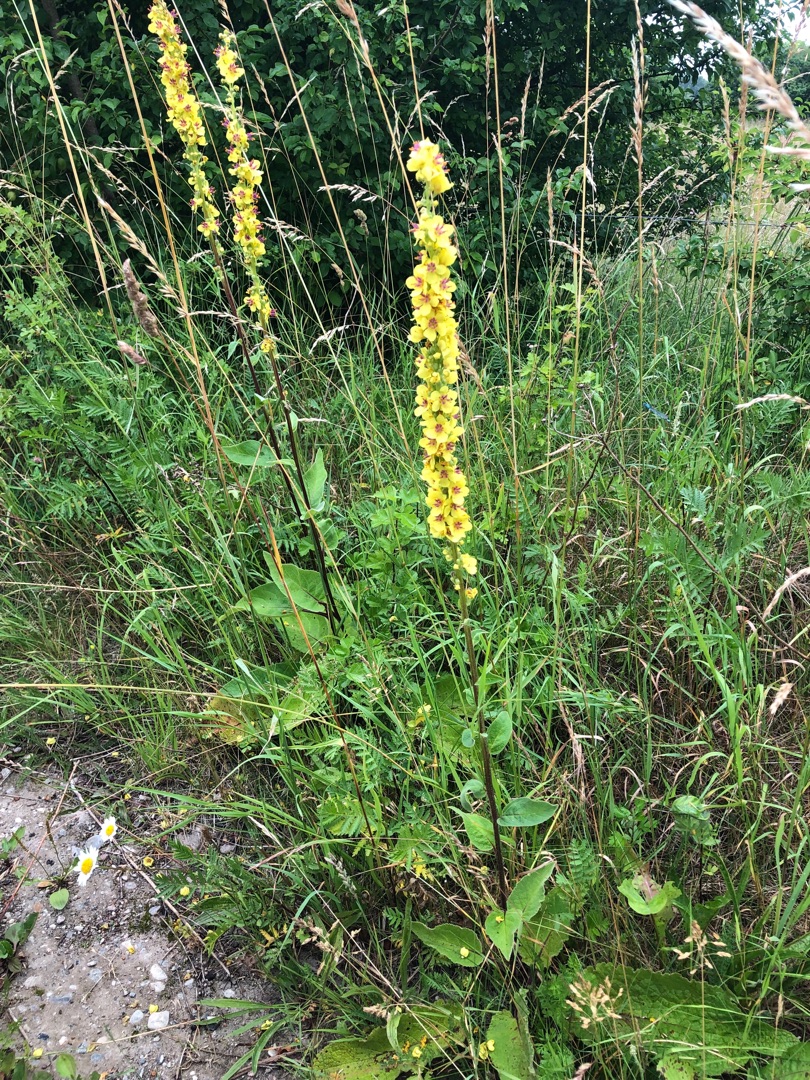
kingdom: Plantae
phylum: Tracheophyta
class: Magnoliopsida
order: Lamiales
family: Scrophulariaceae
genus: Verbascum
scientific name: Verbascum nigrum
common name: Mørk kongelys
